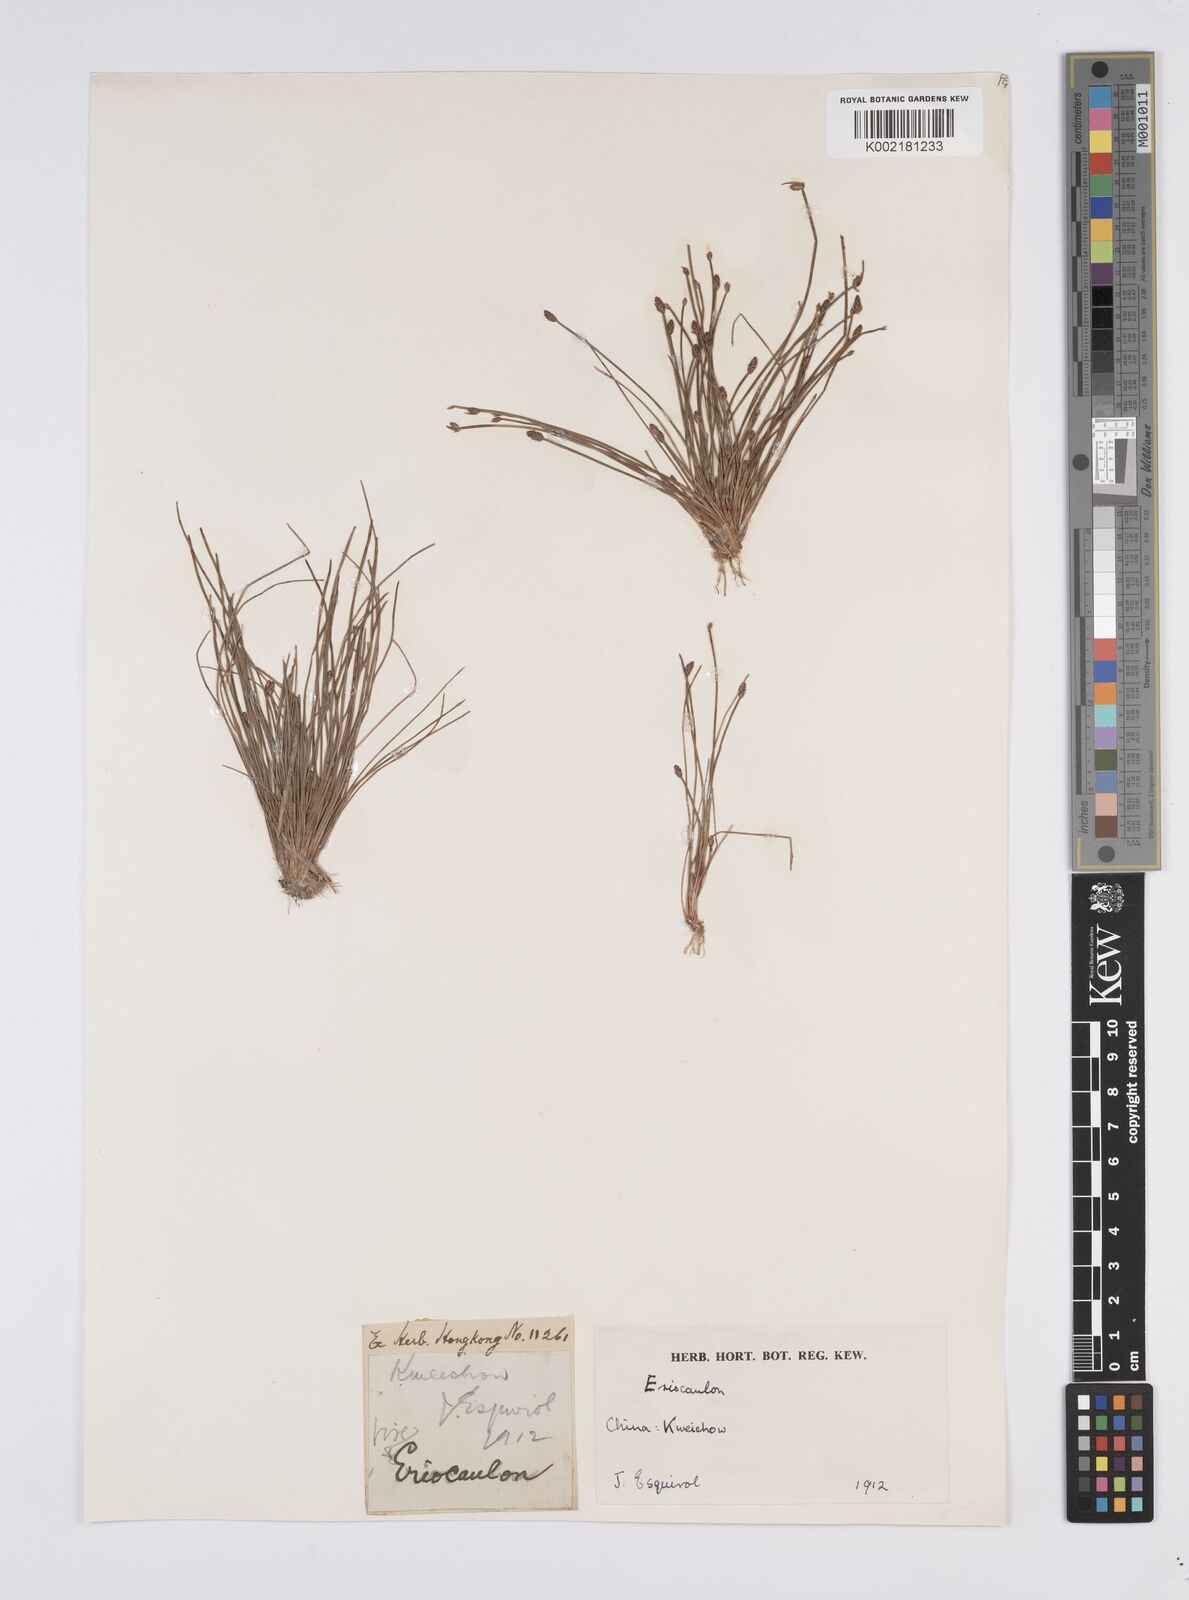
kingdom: Plantae
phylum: Tracheophyta
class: Liliopsida
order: Poales
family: Eriocaulaceae
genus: Eriocaulon
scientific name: Eriocaulon
